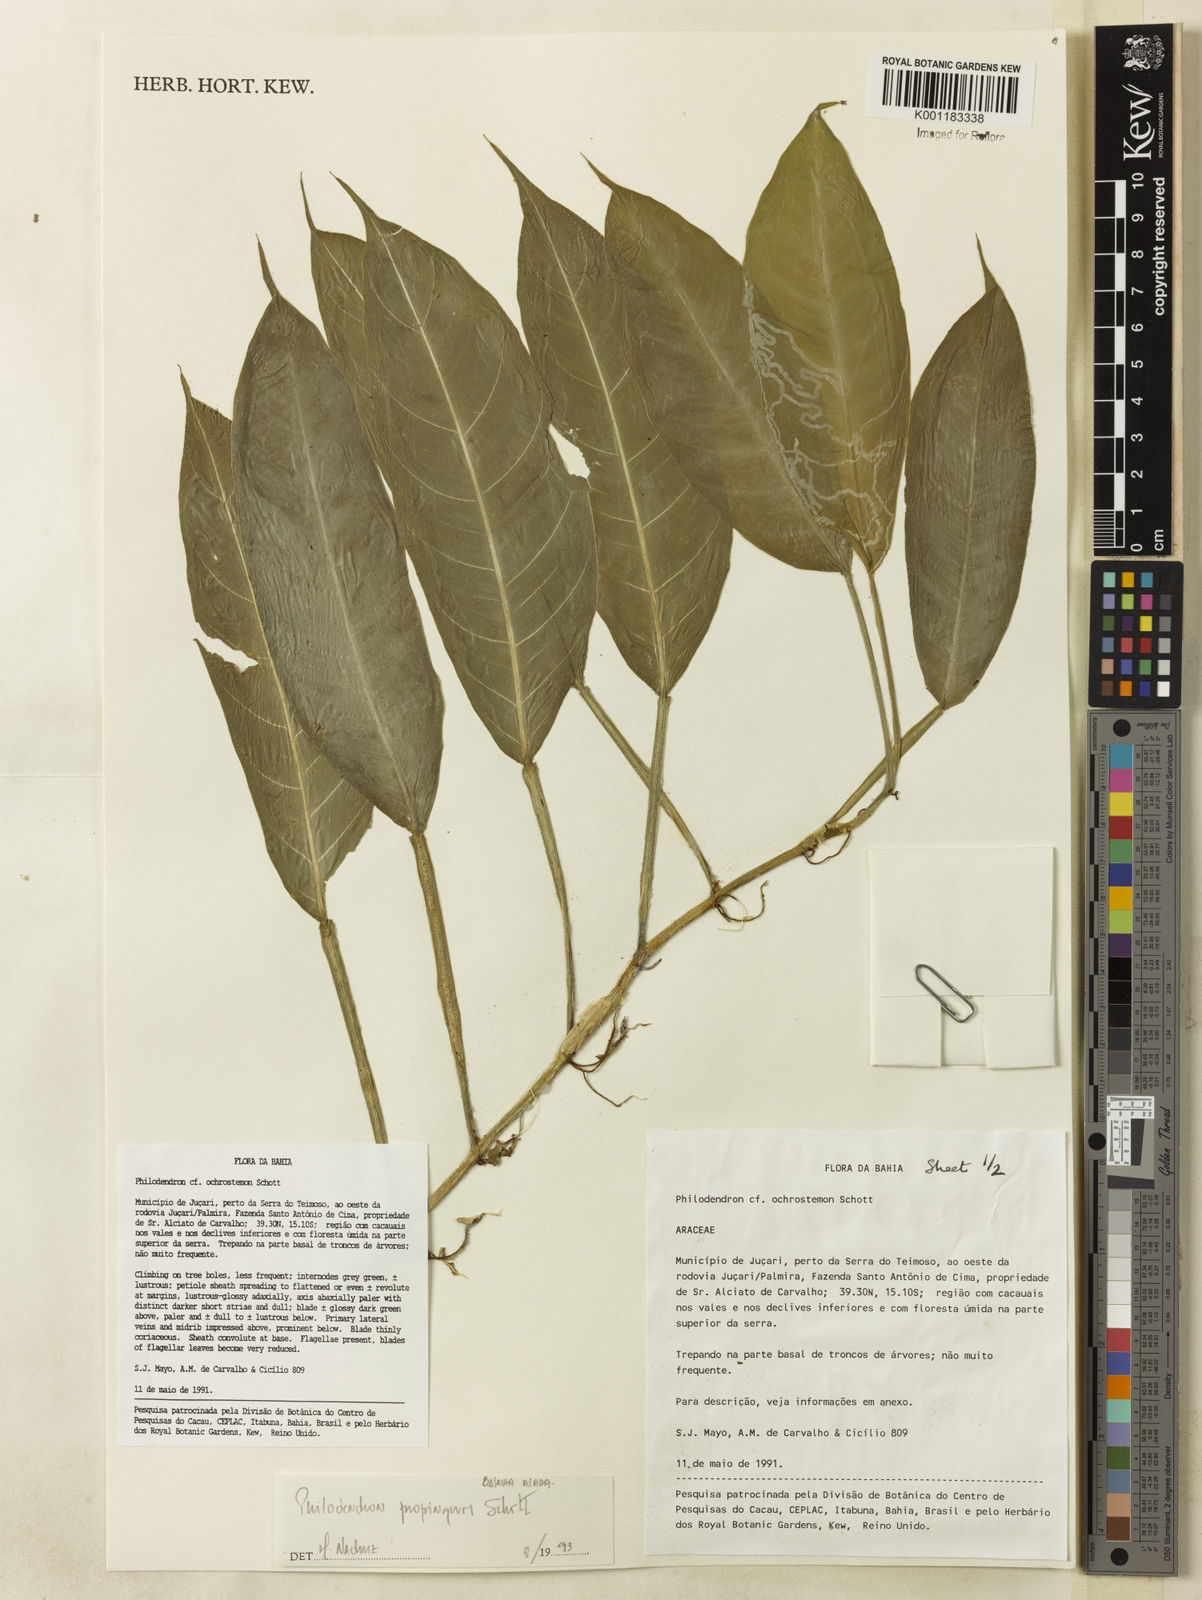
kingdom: Plantae
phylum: Tracheophyta
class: Liliopsida
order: Alismatales
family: Araceae
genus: Philodendron
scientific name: Philodendron propinquum
